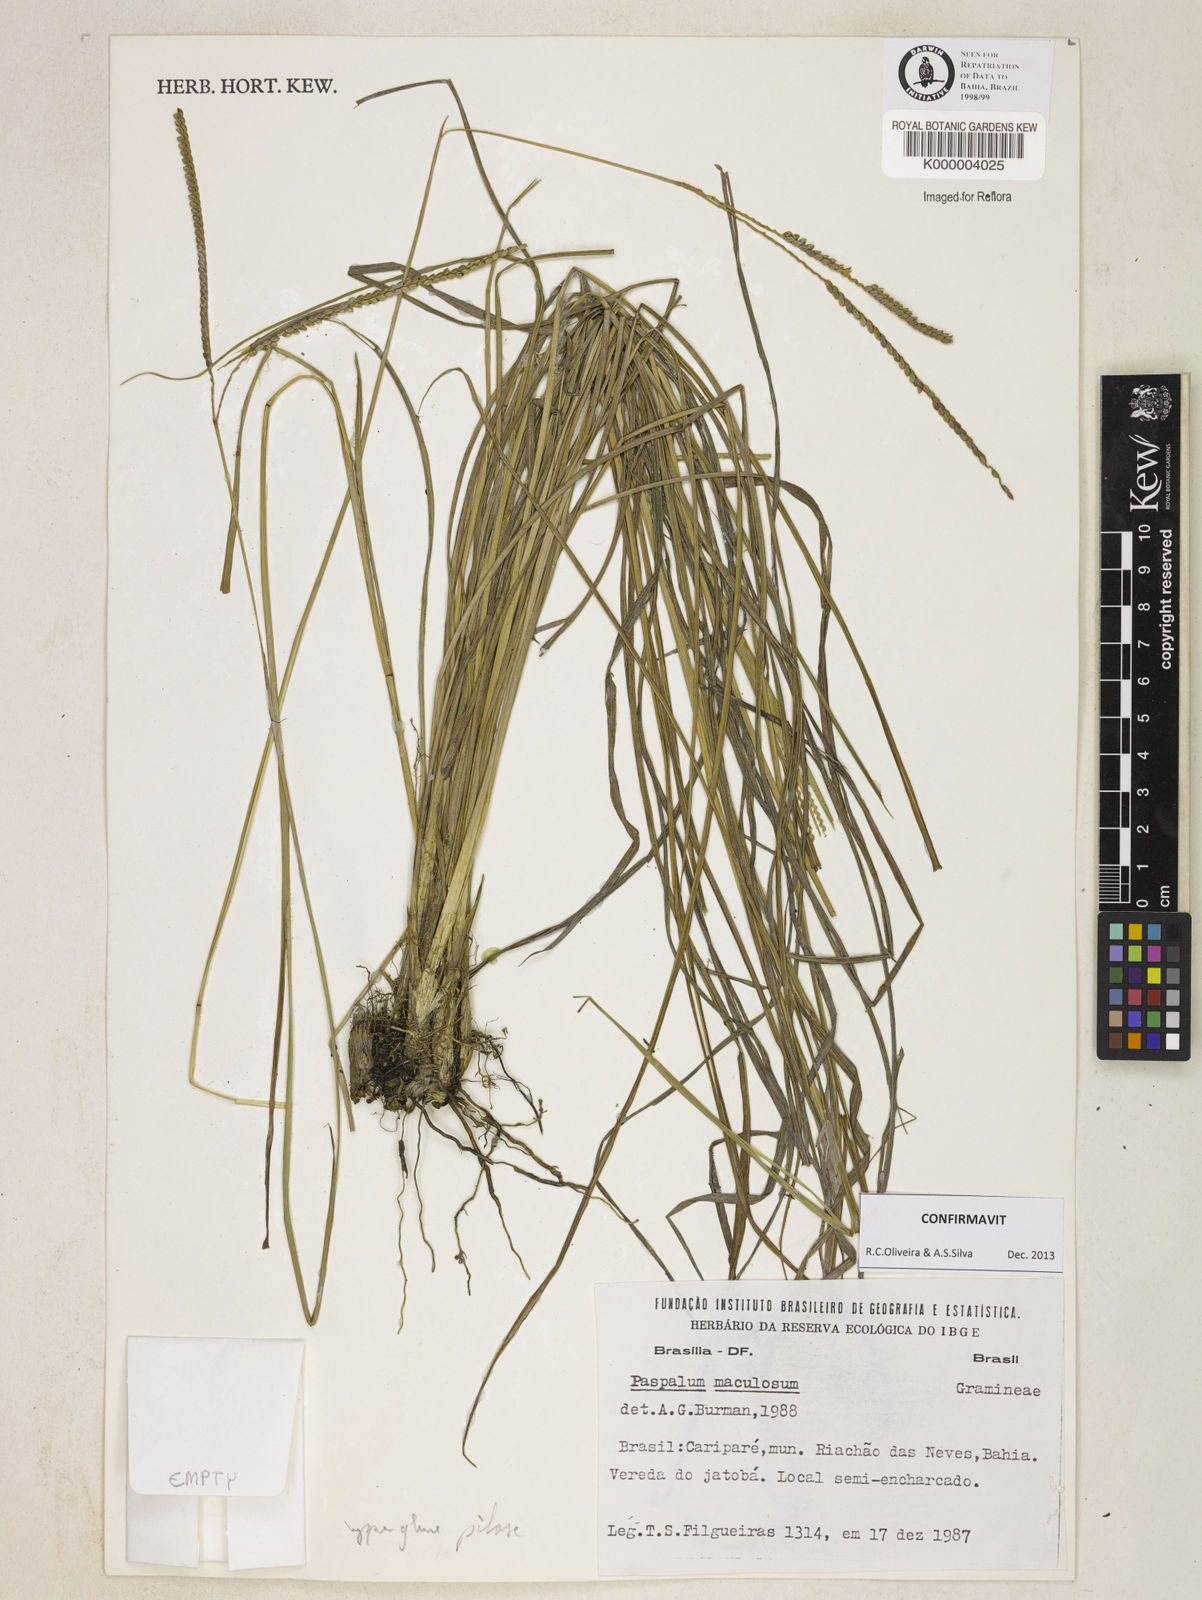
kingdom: Plantae
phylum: Tracheophyta
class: Liliopsida
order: Poales
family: Poaceae
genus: Paspalum
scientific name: Paspalum
